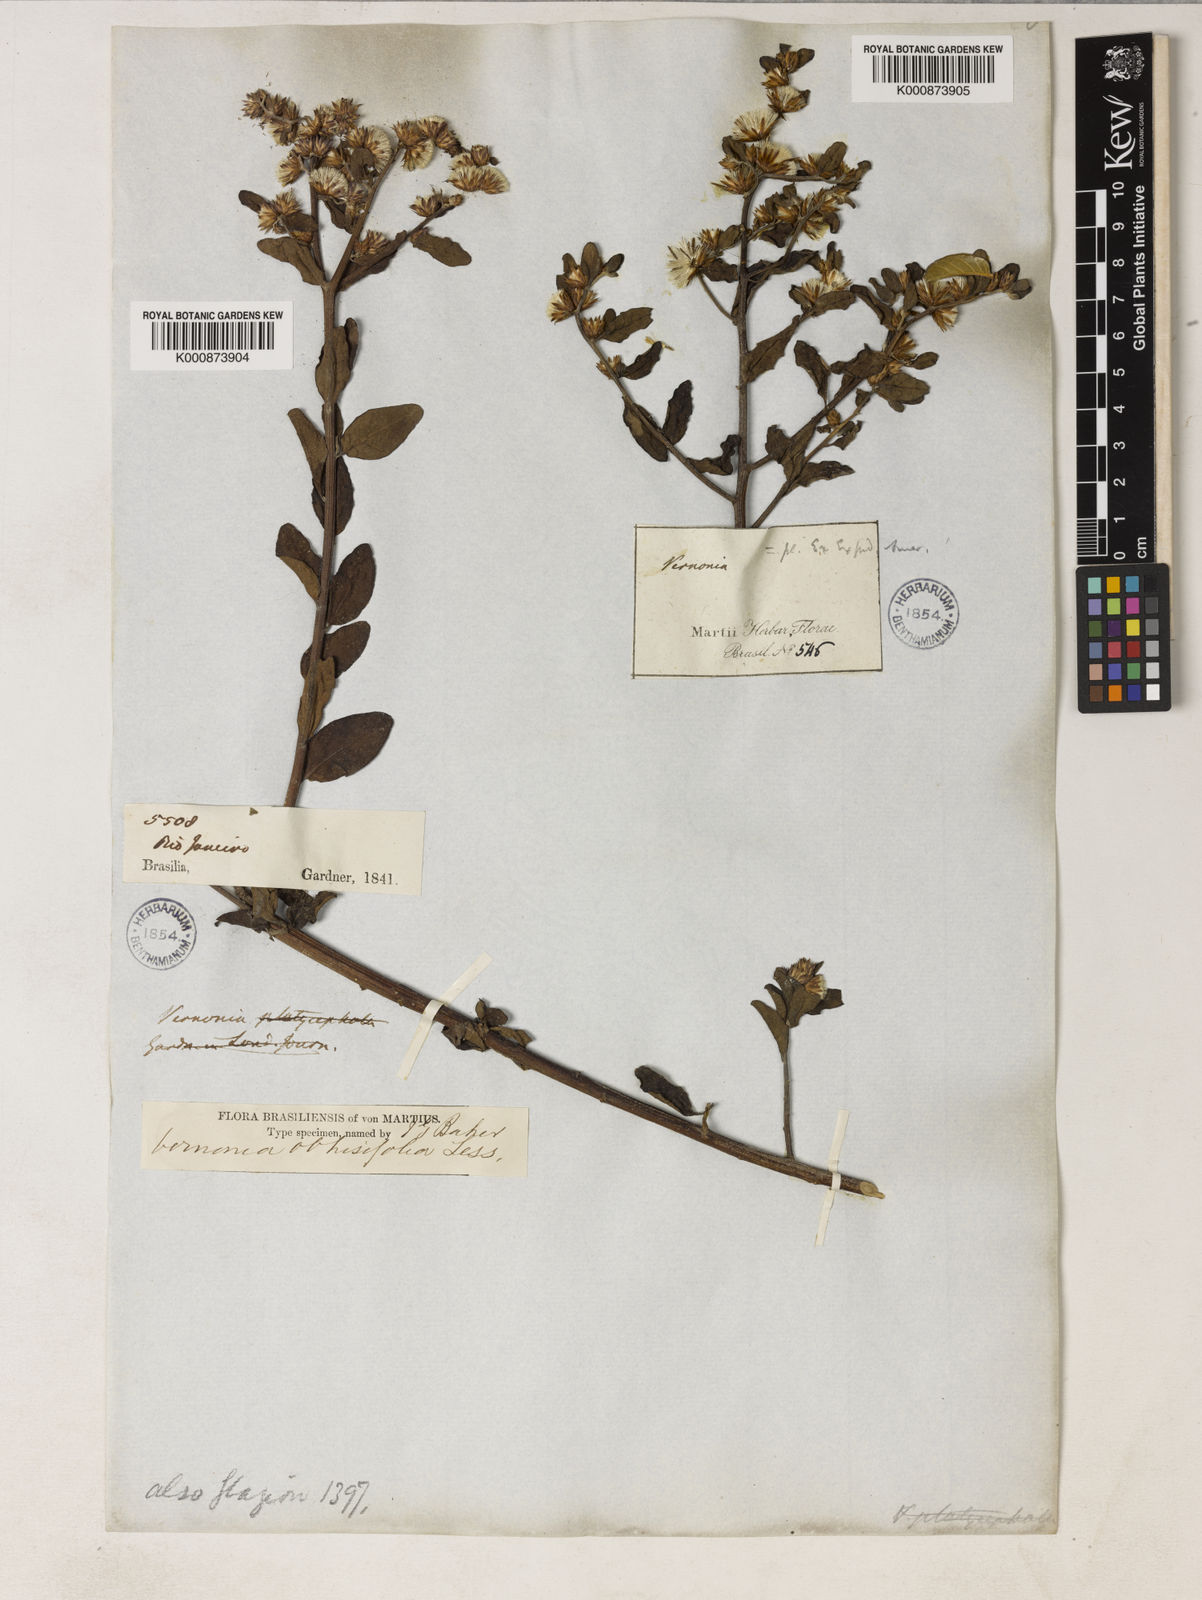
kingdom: Plantae
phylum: Tracheophyta
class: Magnoliopsida
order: Asterales
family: Asteraceae
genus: Lepidaploa
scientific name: Lepidaploa obtusifolia
